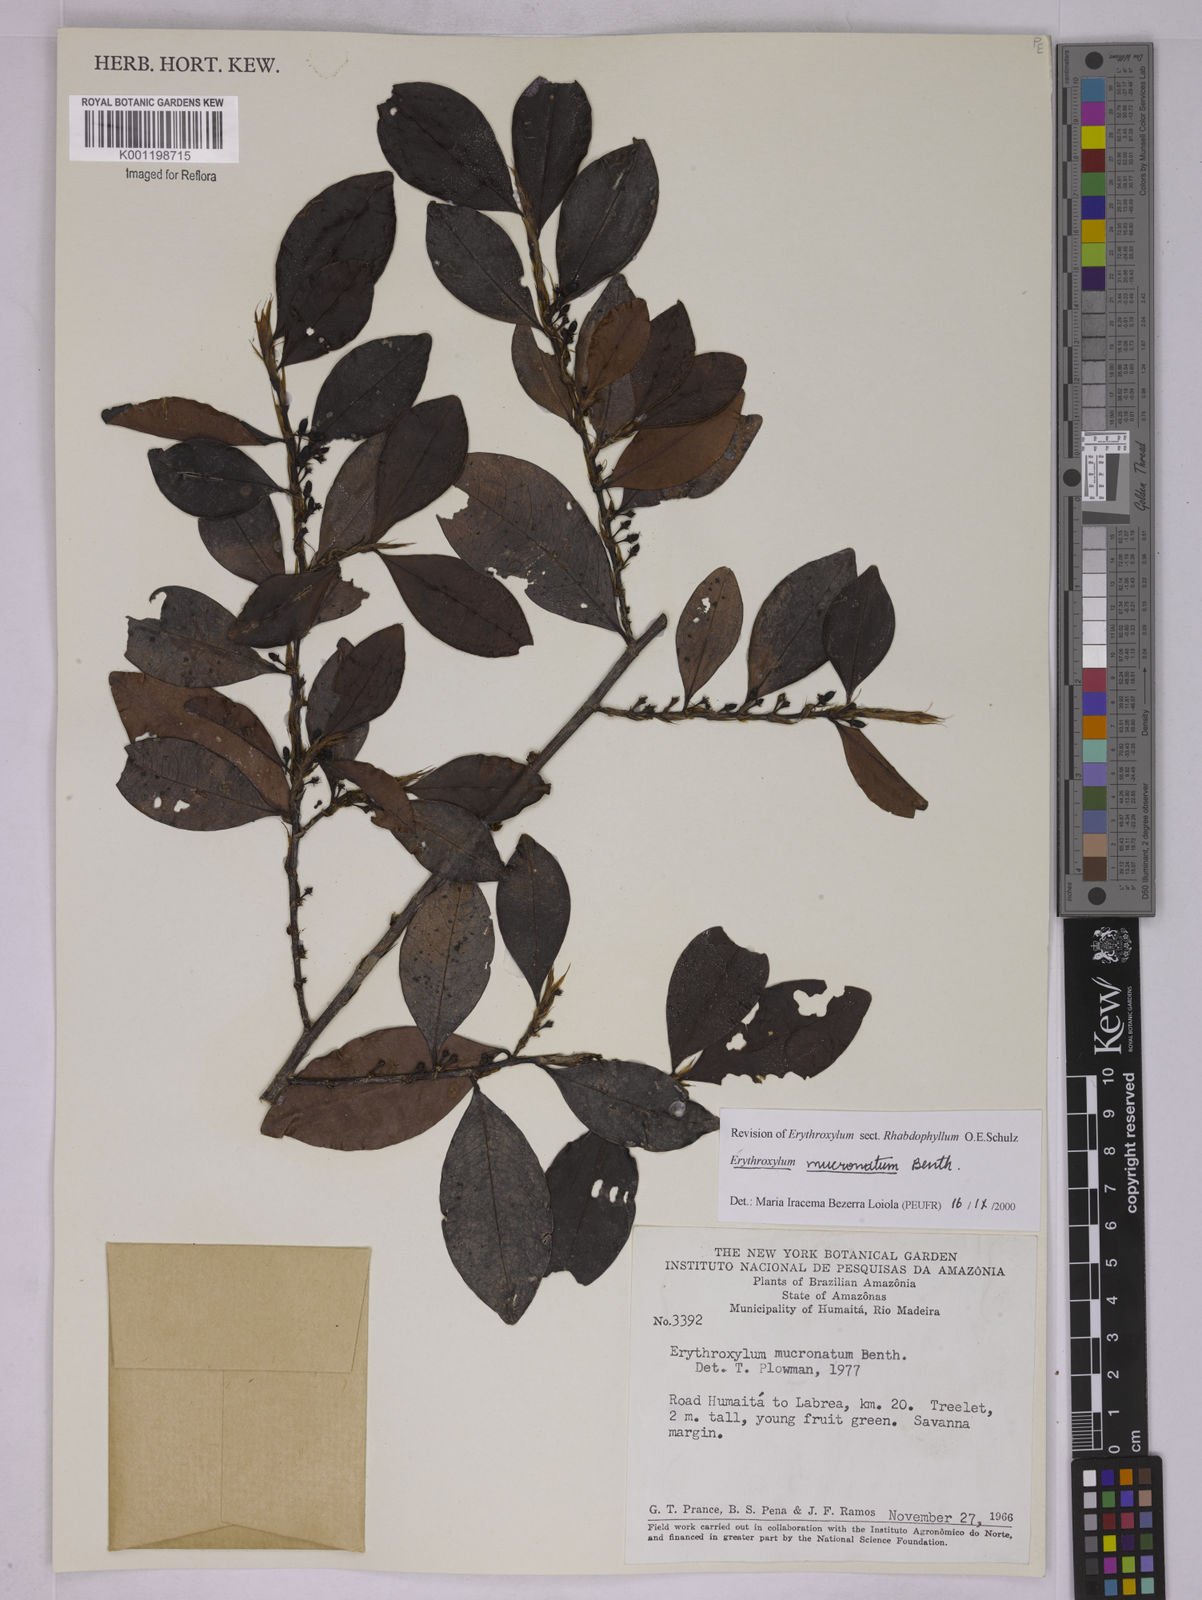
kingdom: Plantae
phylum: Tracheophyta
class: Magnoliopsida
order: Malpighiales
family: Erythroxylaceae
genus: Erythroxylum
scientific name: Erythroxylum mucronatum
